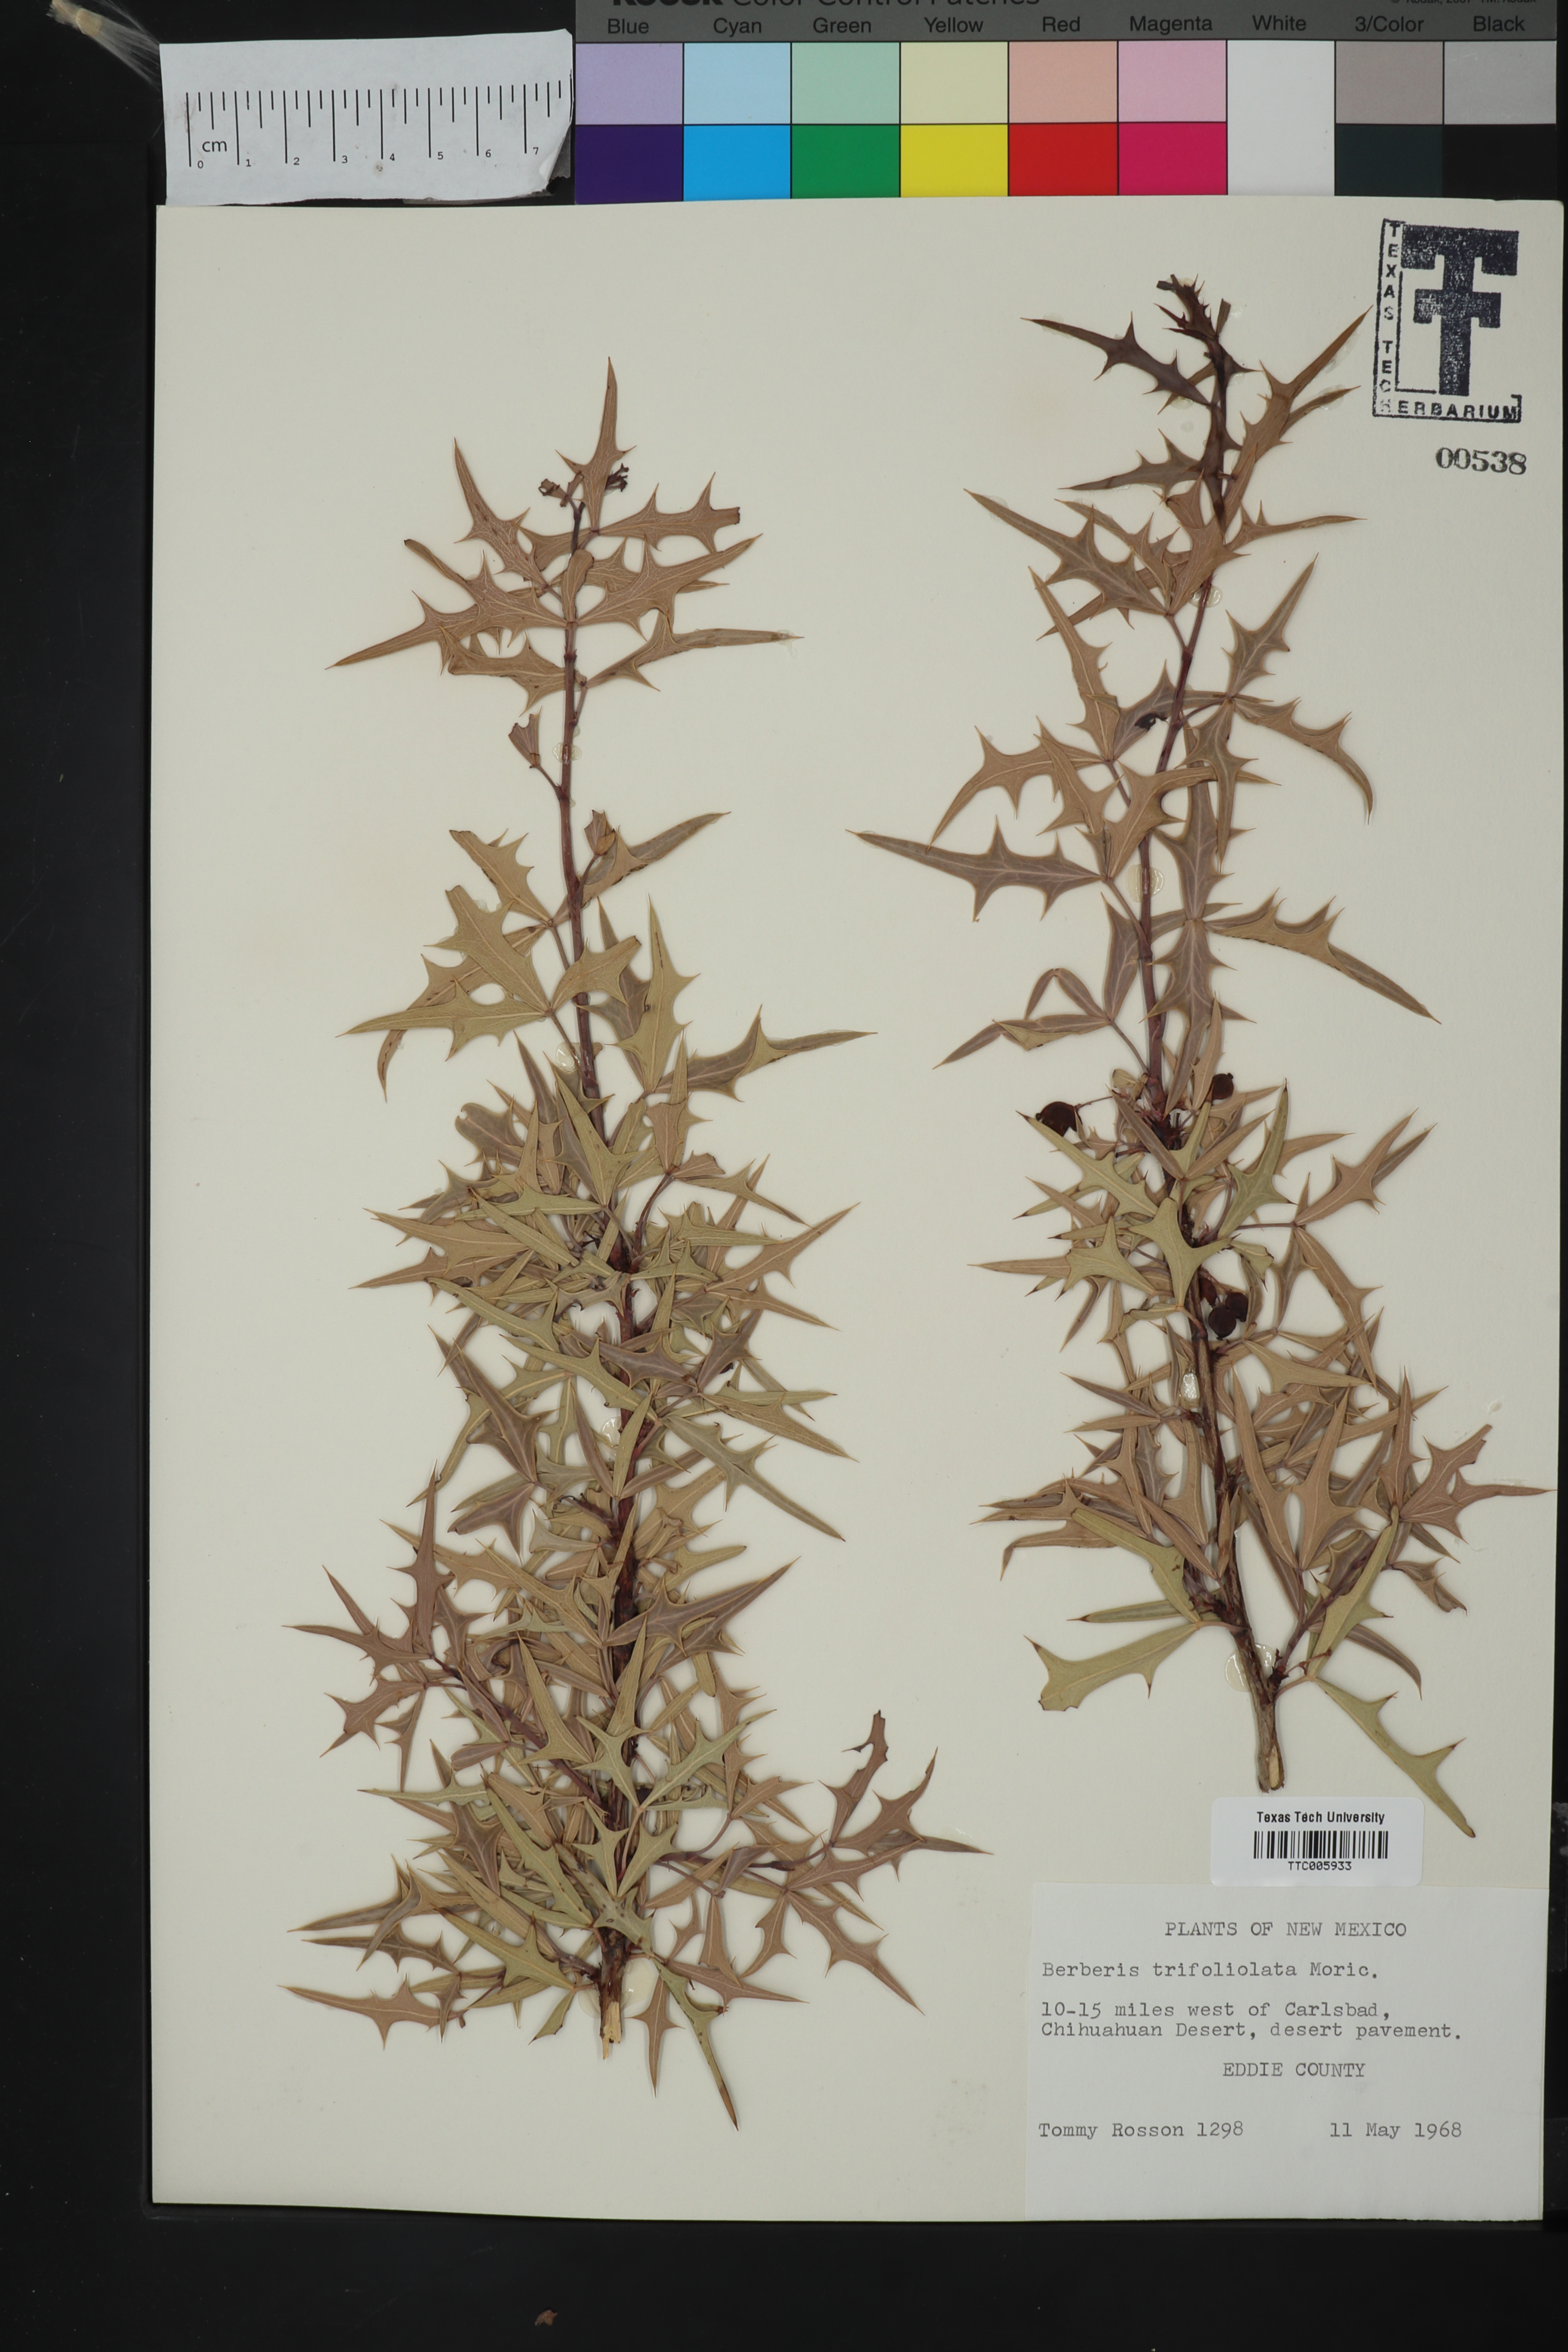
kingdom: Plantae
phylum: Tracheophyta
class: Magnoliopsida
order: Ranunculales
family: Berberidaceae
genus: Alloberberis
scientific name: Alloberberis trifoliolata
